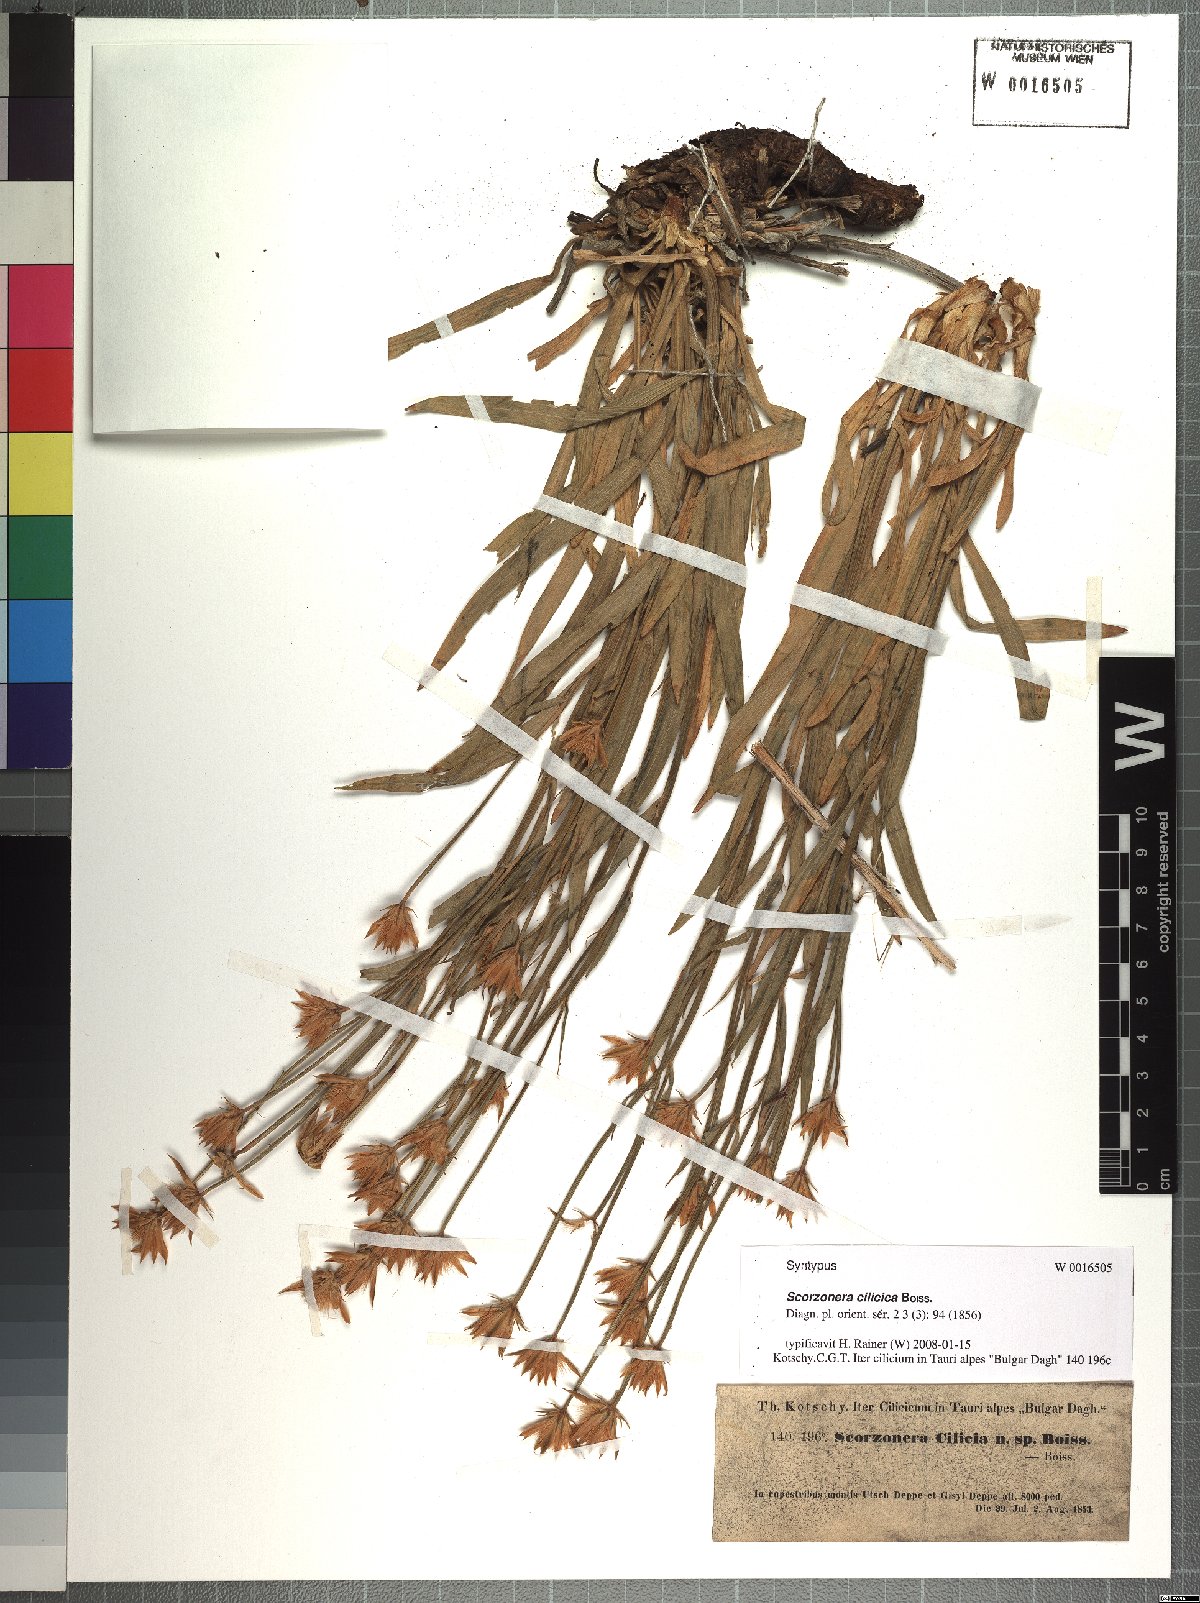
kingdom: Plantae
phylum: Tracheophyta
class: Magnoliopsida
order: Asterales
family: Asteraceae
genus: Cigdemia
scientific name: Cigdemia cilicica
